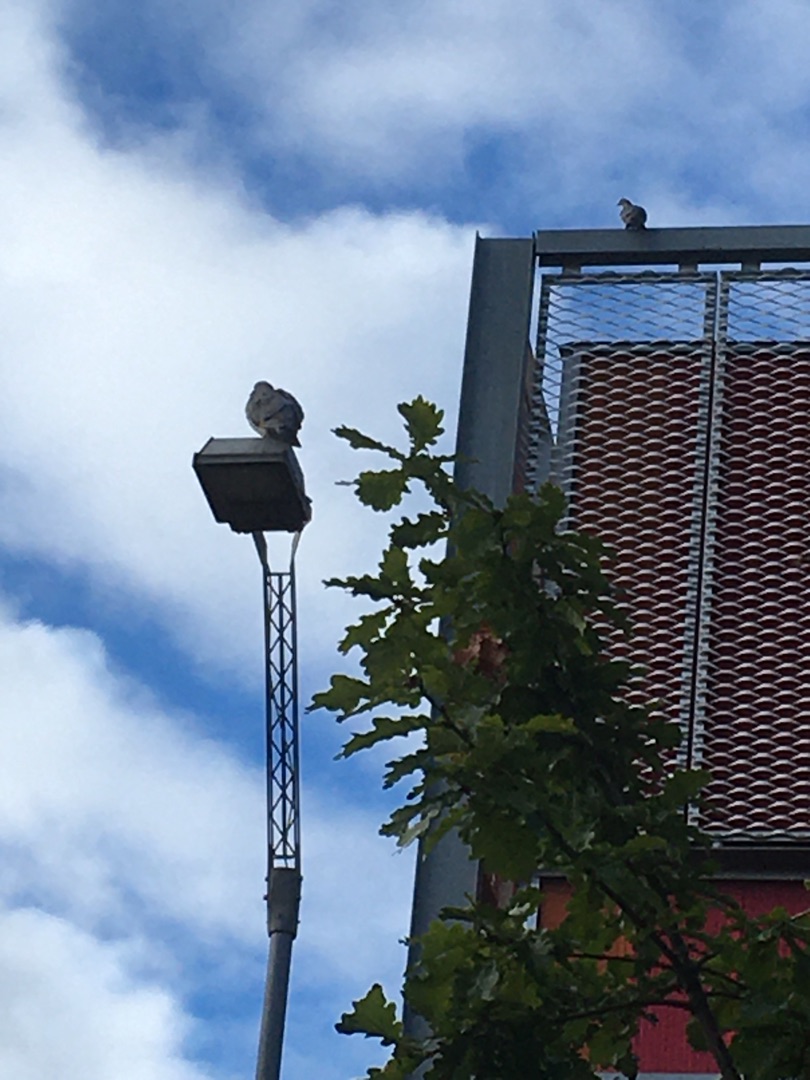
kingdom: Animalia
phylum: Chordata
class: Aves
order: Columbiformes
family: Columbidae
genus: Columba
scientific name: Columba livia
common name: Tamdue
